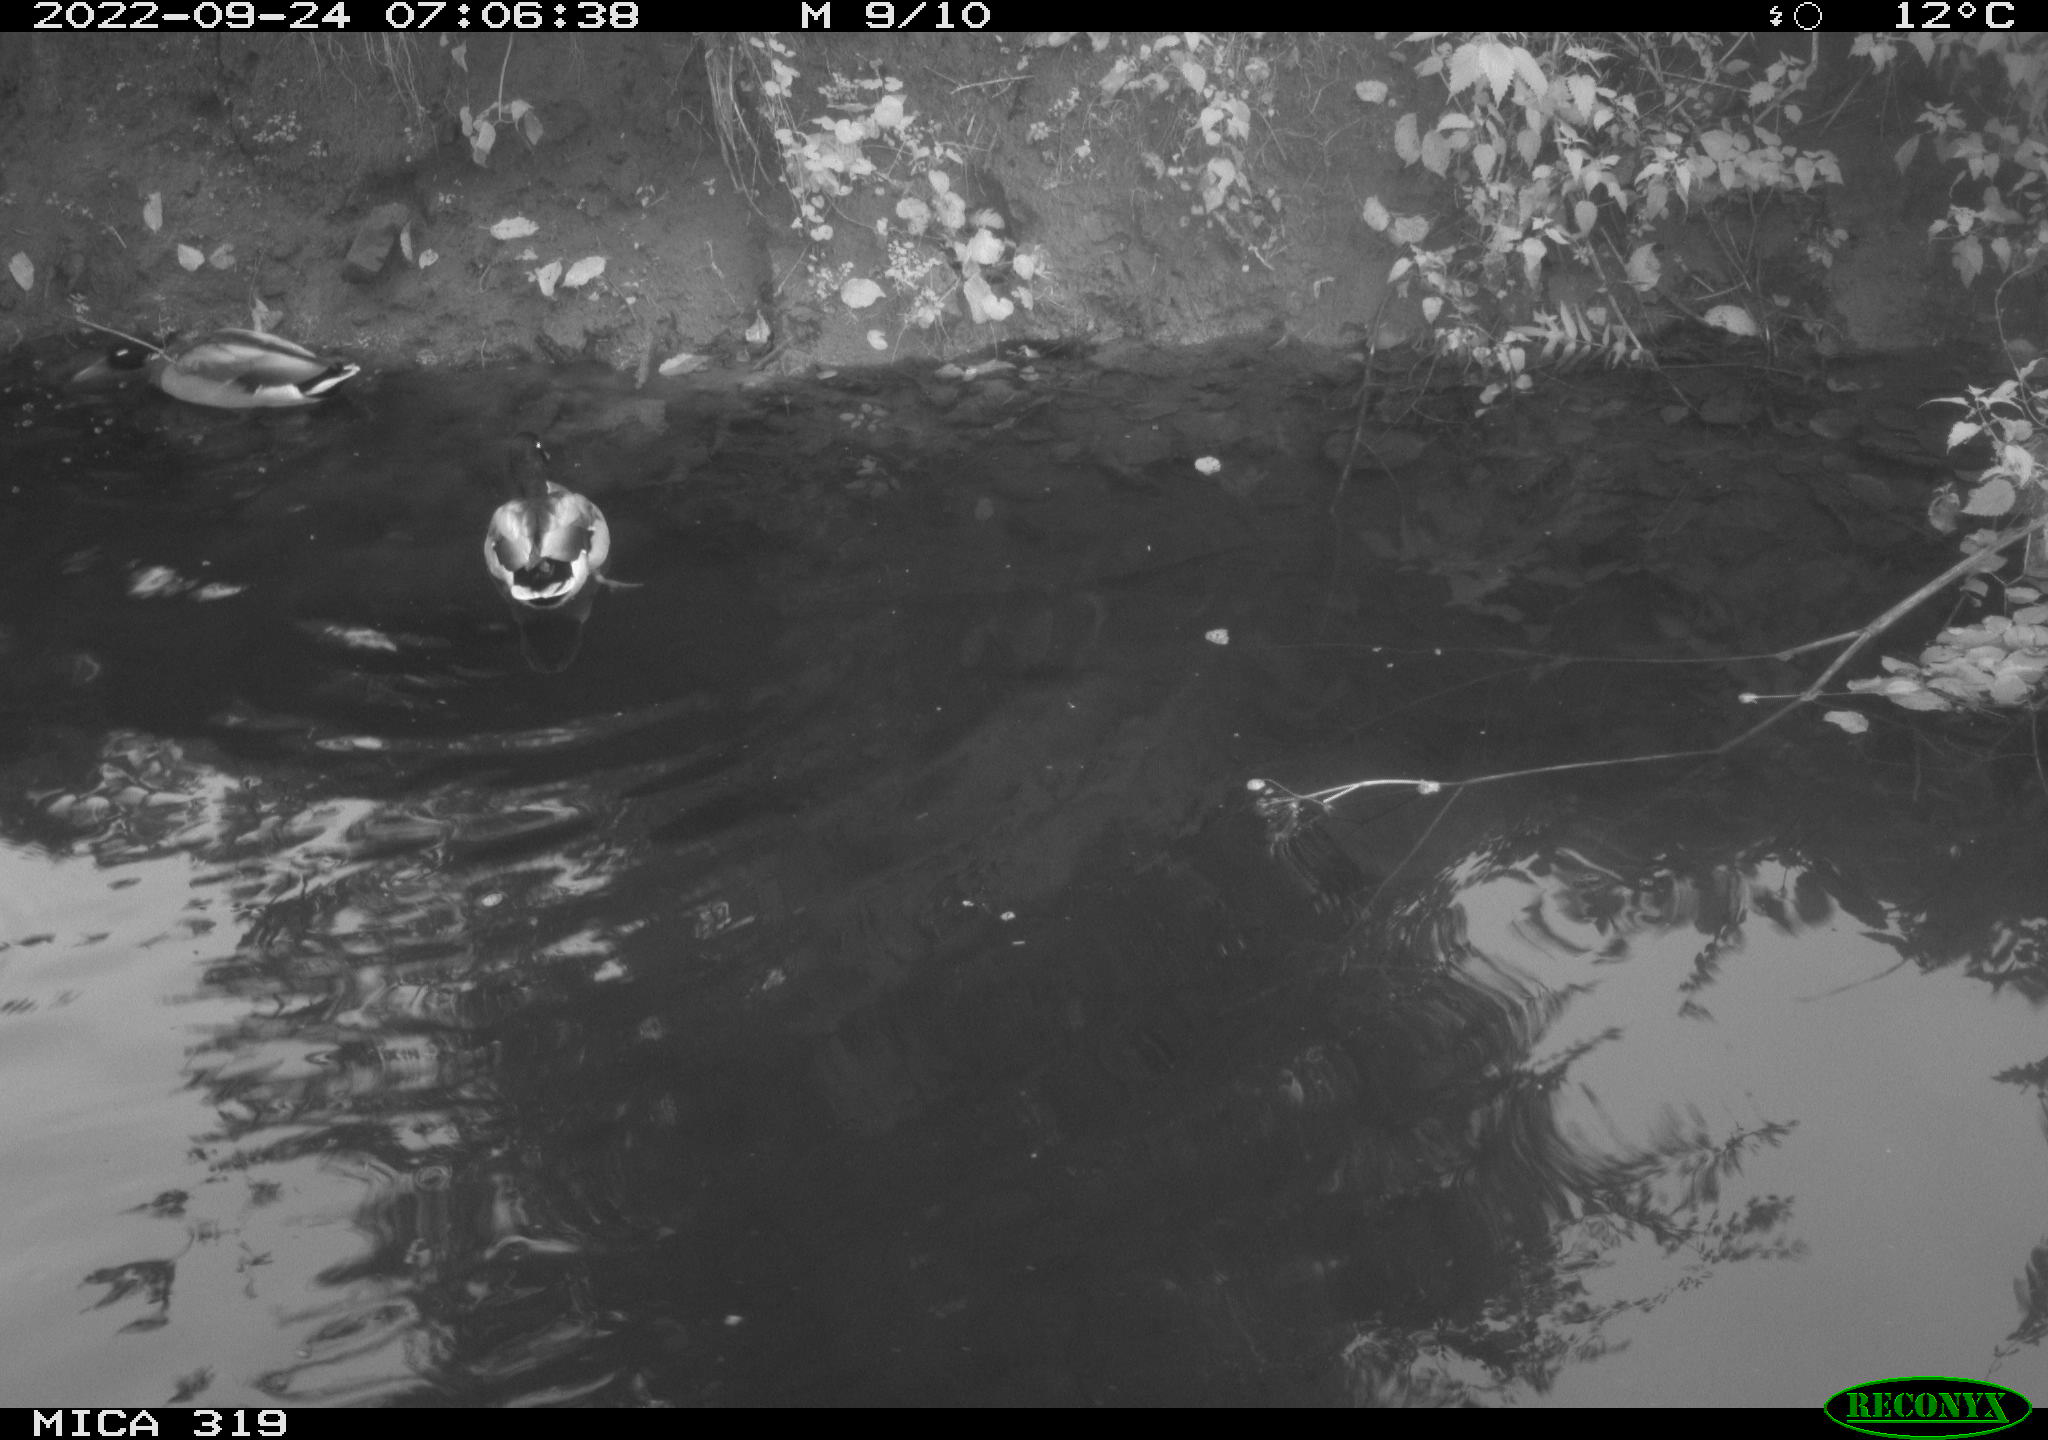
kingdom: Animalia
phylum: Chordata
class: Aves
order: Gruiformes
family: Rallidae
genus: Gallinula
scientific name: Gallinula chloropus
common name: Common moorhen
